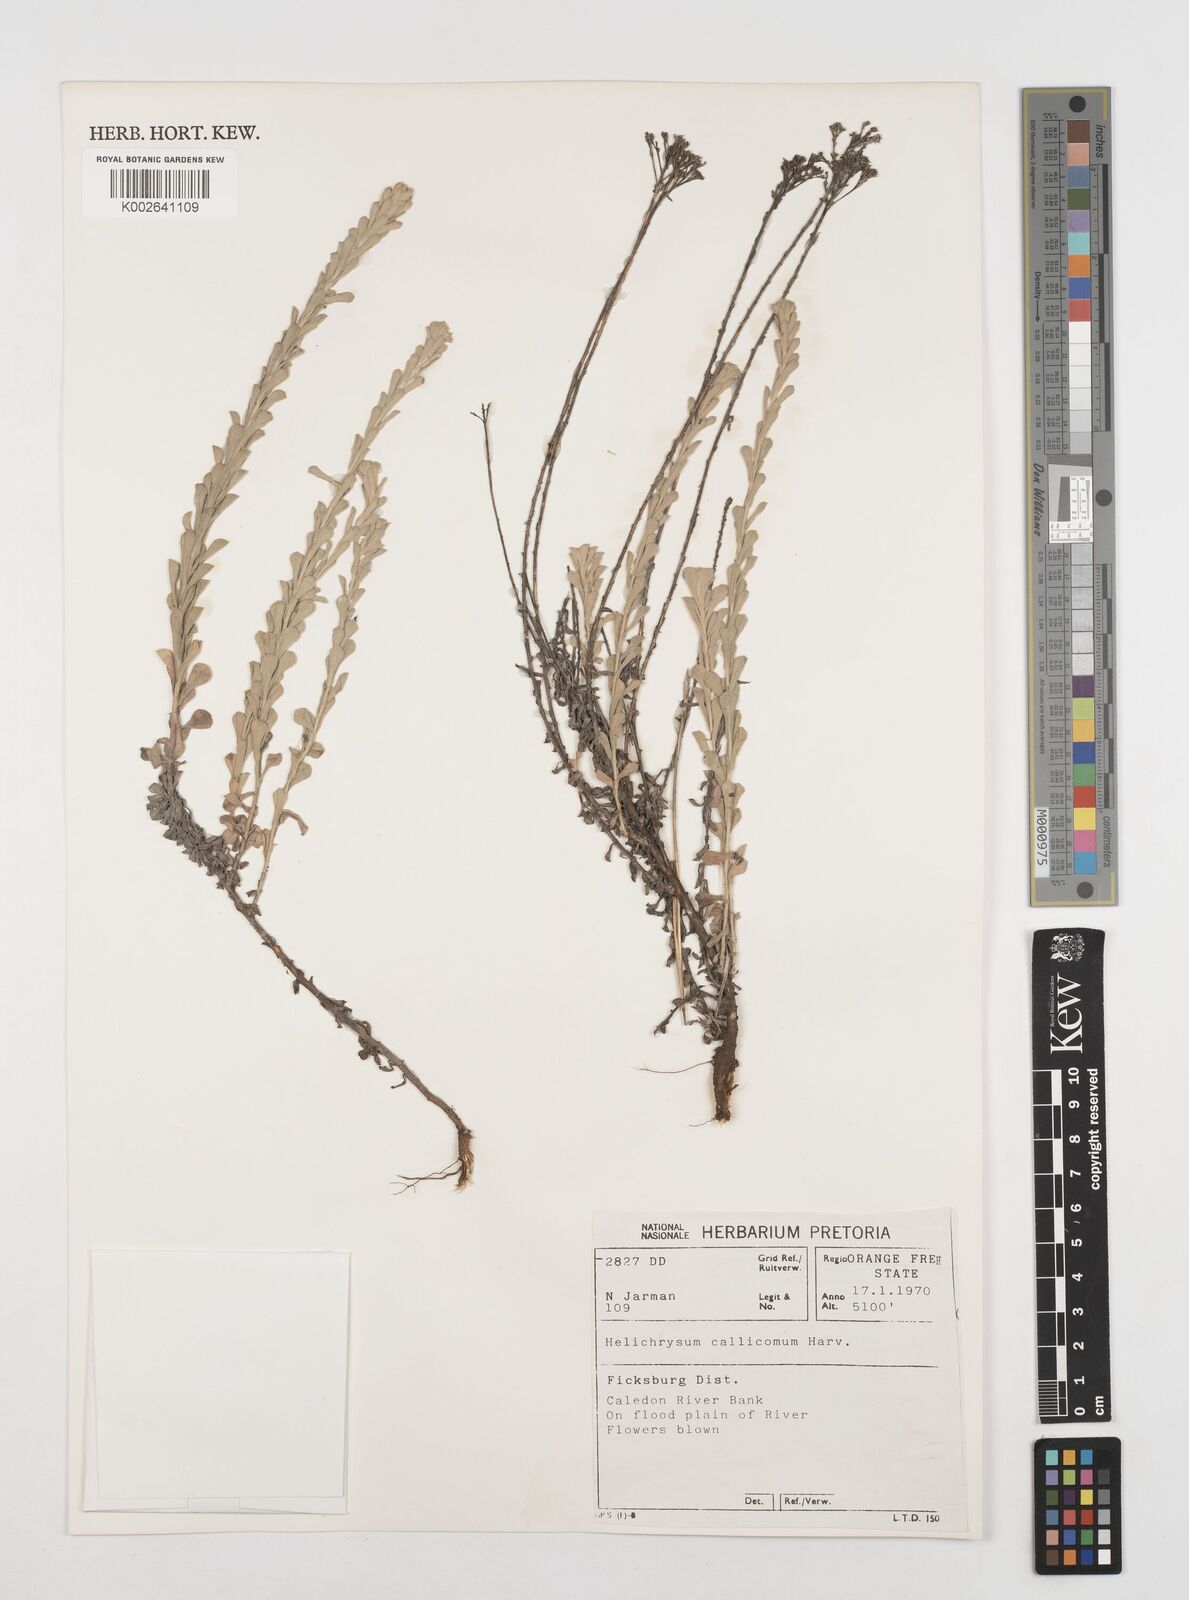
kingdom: Plantae
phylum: Tracheophyta
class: Magnoliopsida
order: Asterales
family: Asteraceae
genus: Helichrysum
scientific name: Helichrysum callicomum
